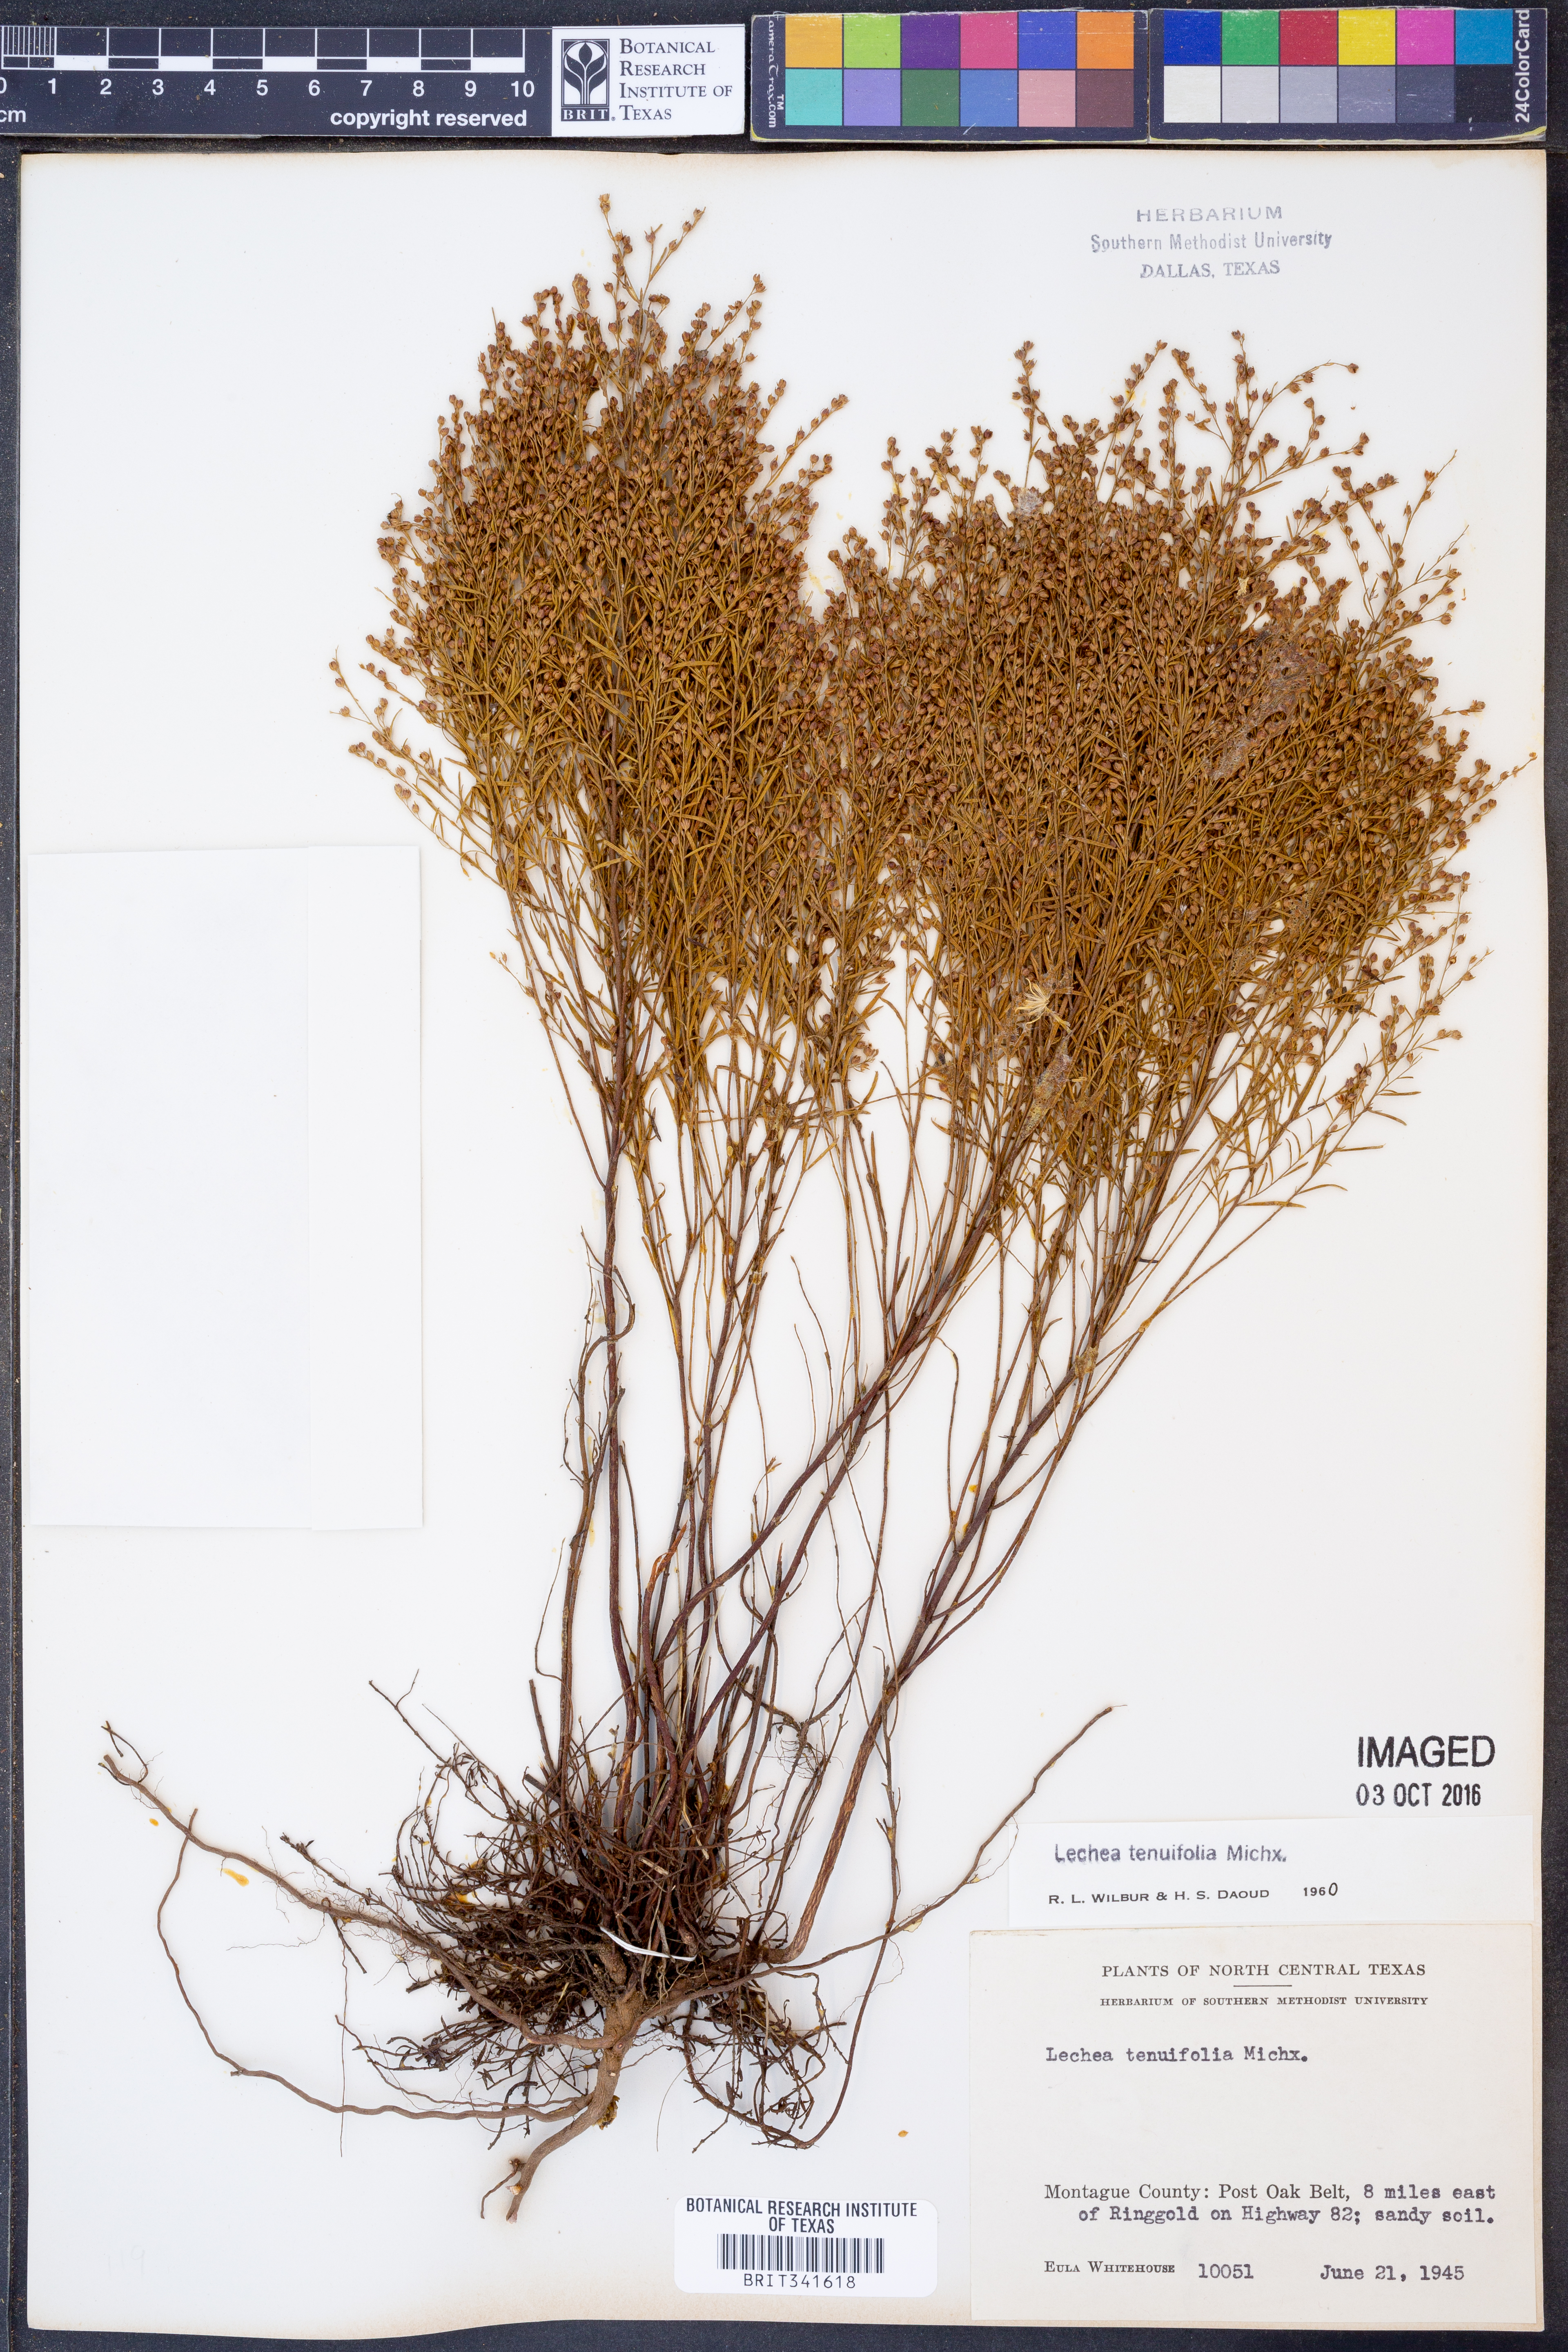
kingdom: Plantae
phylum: Tracheophyta
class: Magnoliopsida
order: Malvales
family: Cistaceae
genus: Lechea
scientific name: Lechea tenuifolia
